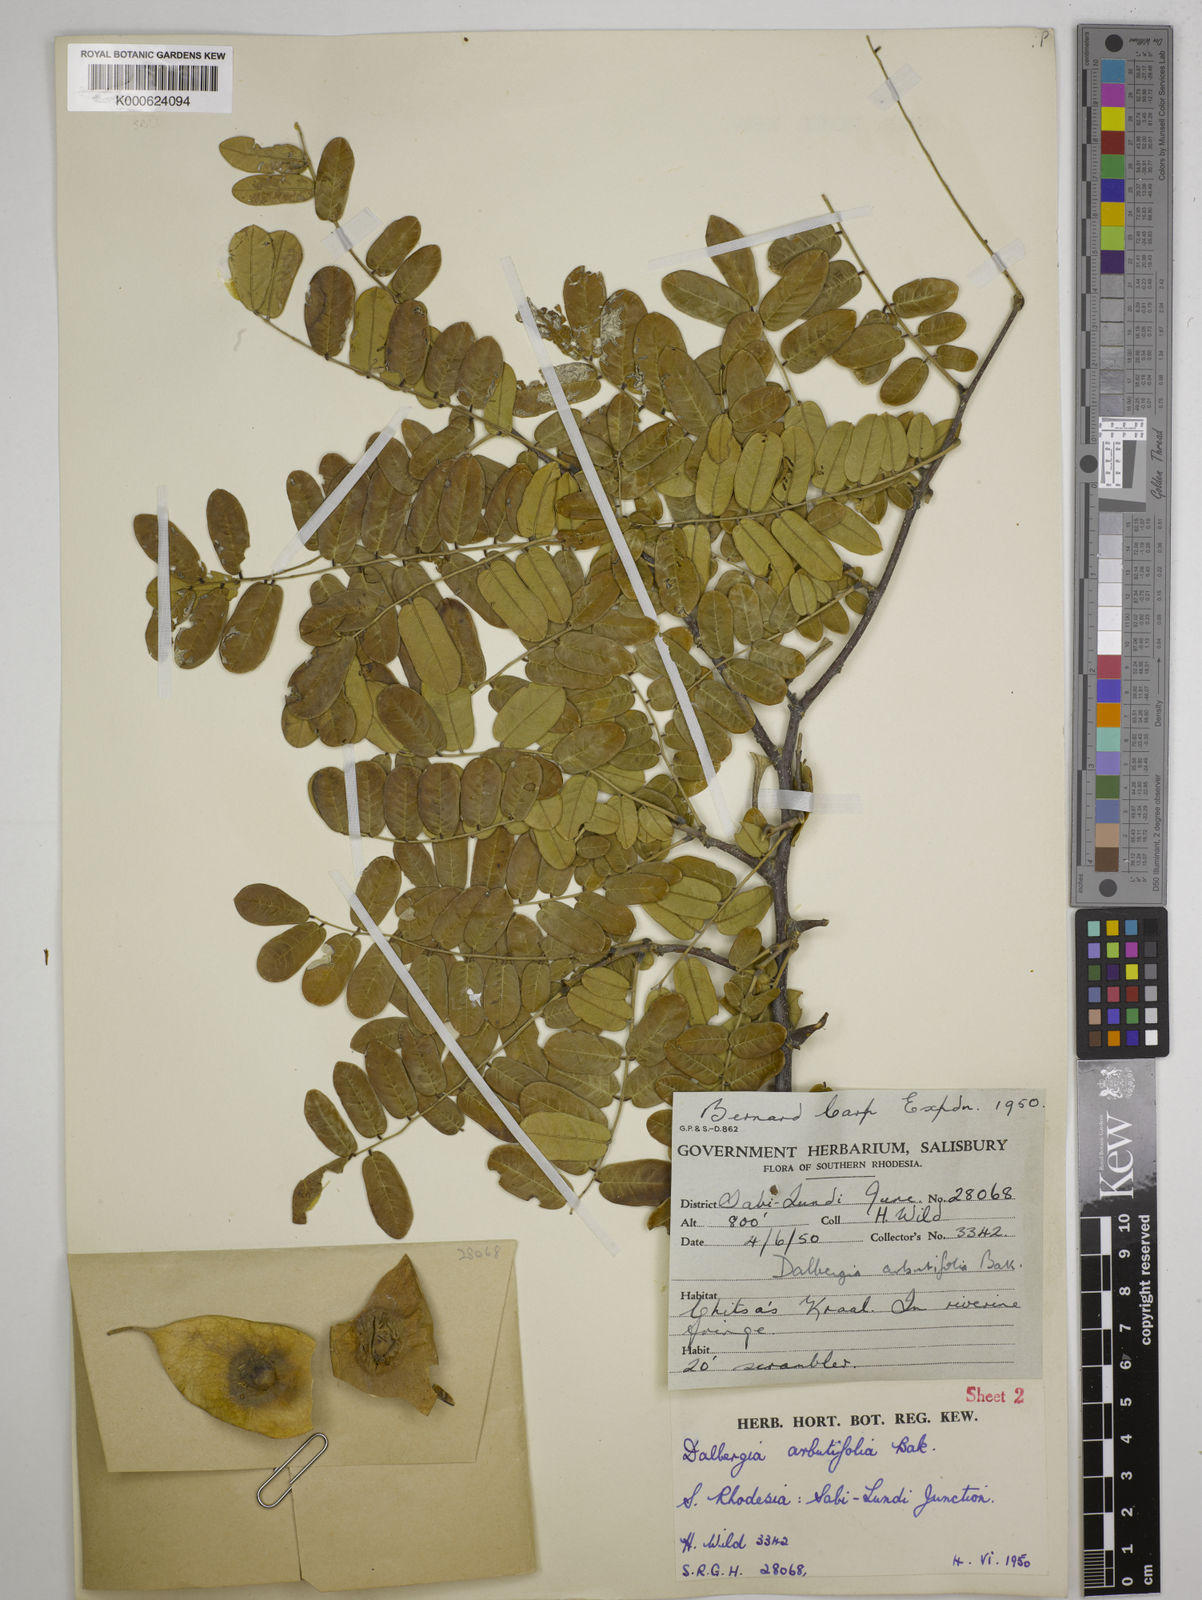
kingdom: Plantae
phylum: Tracheophyta
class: Magnoliopsida
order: Fabales
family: Fabaceae
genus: Dalbergia
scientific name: Dalbergia arbutifolia
